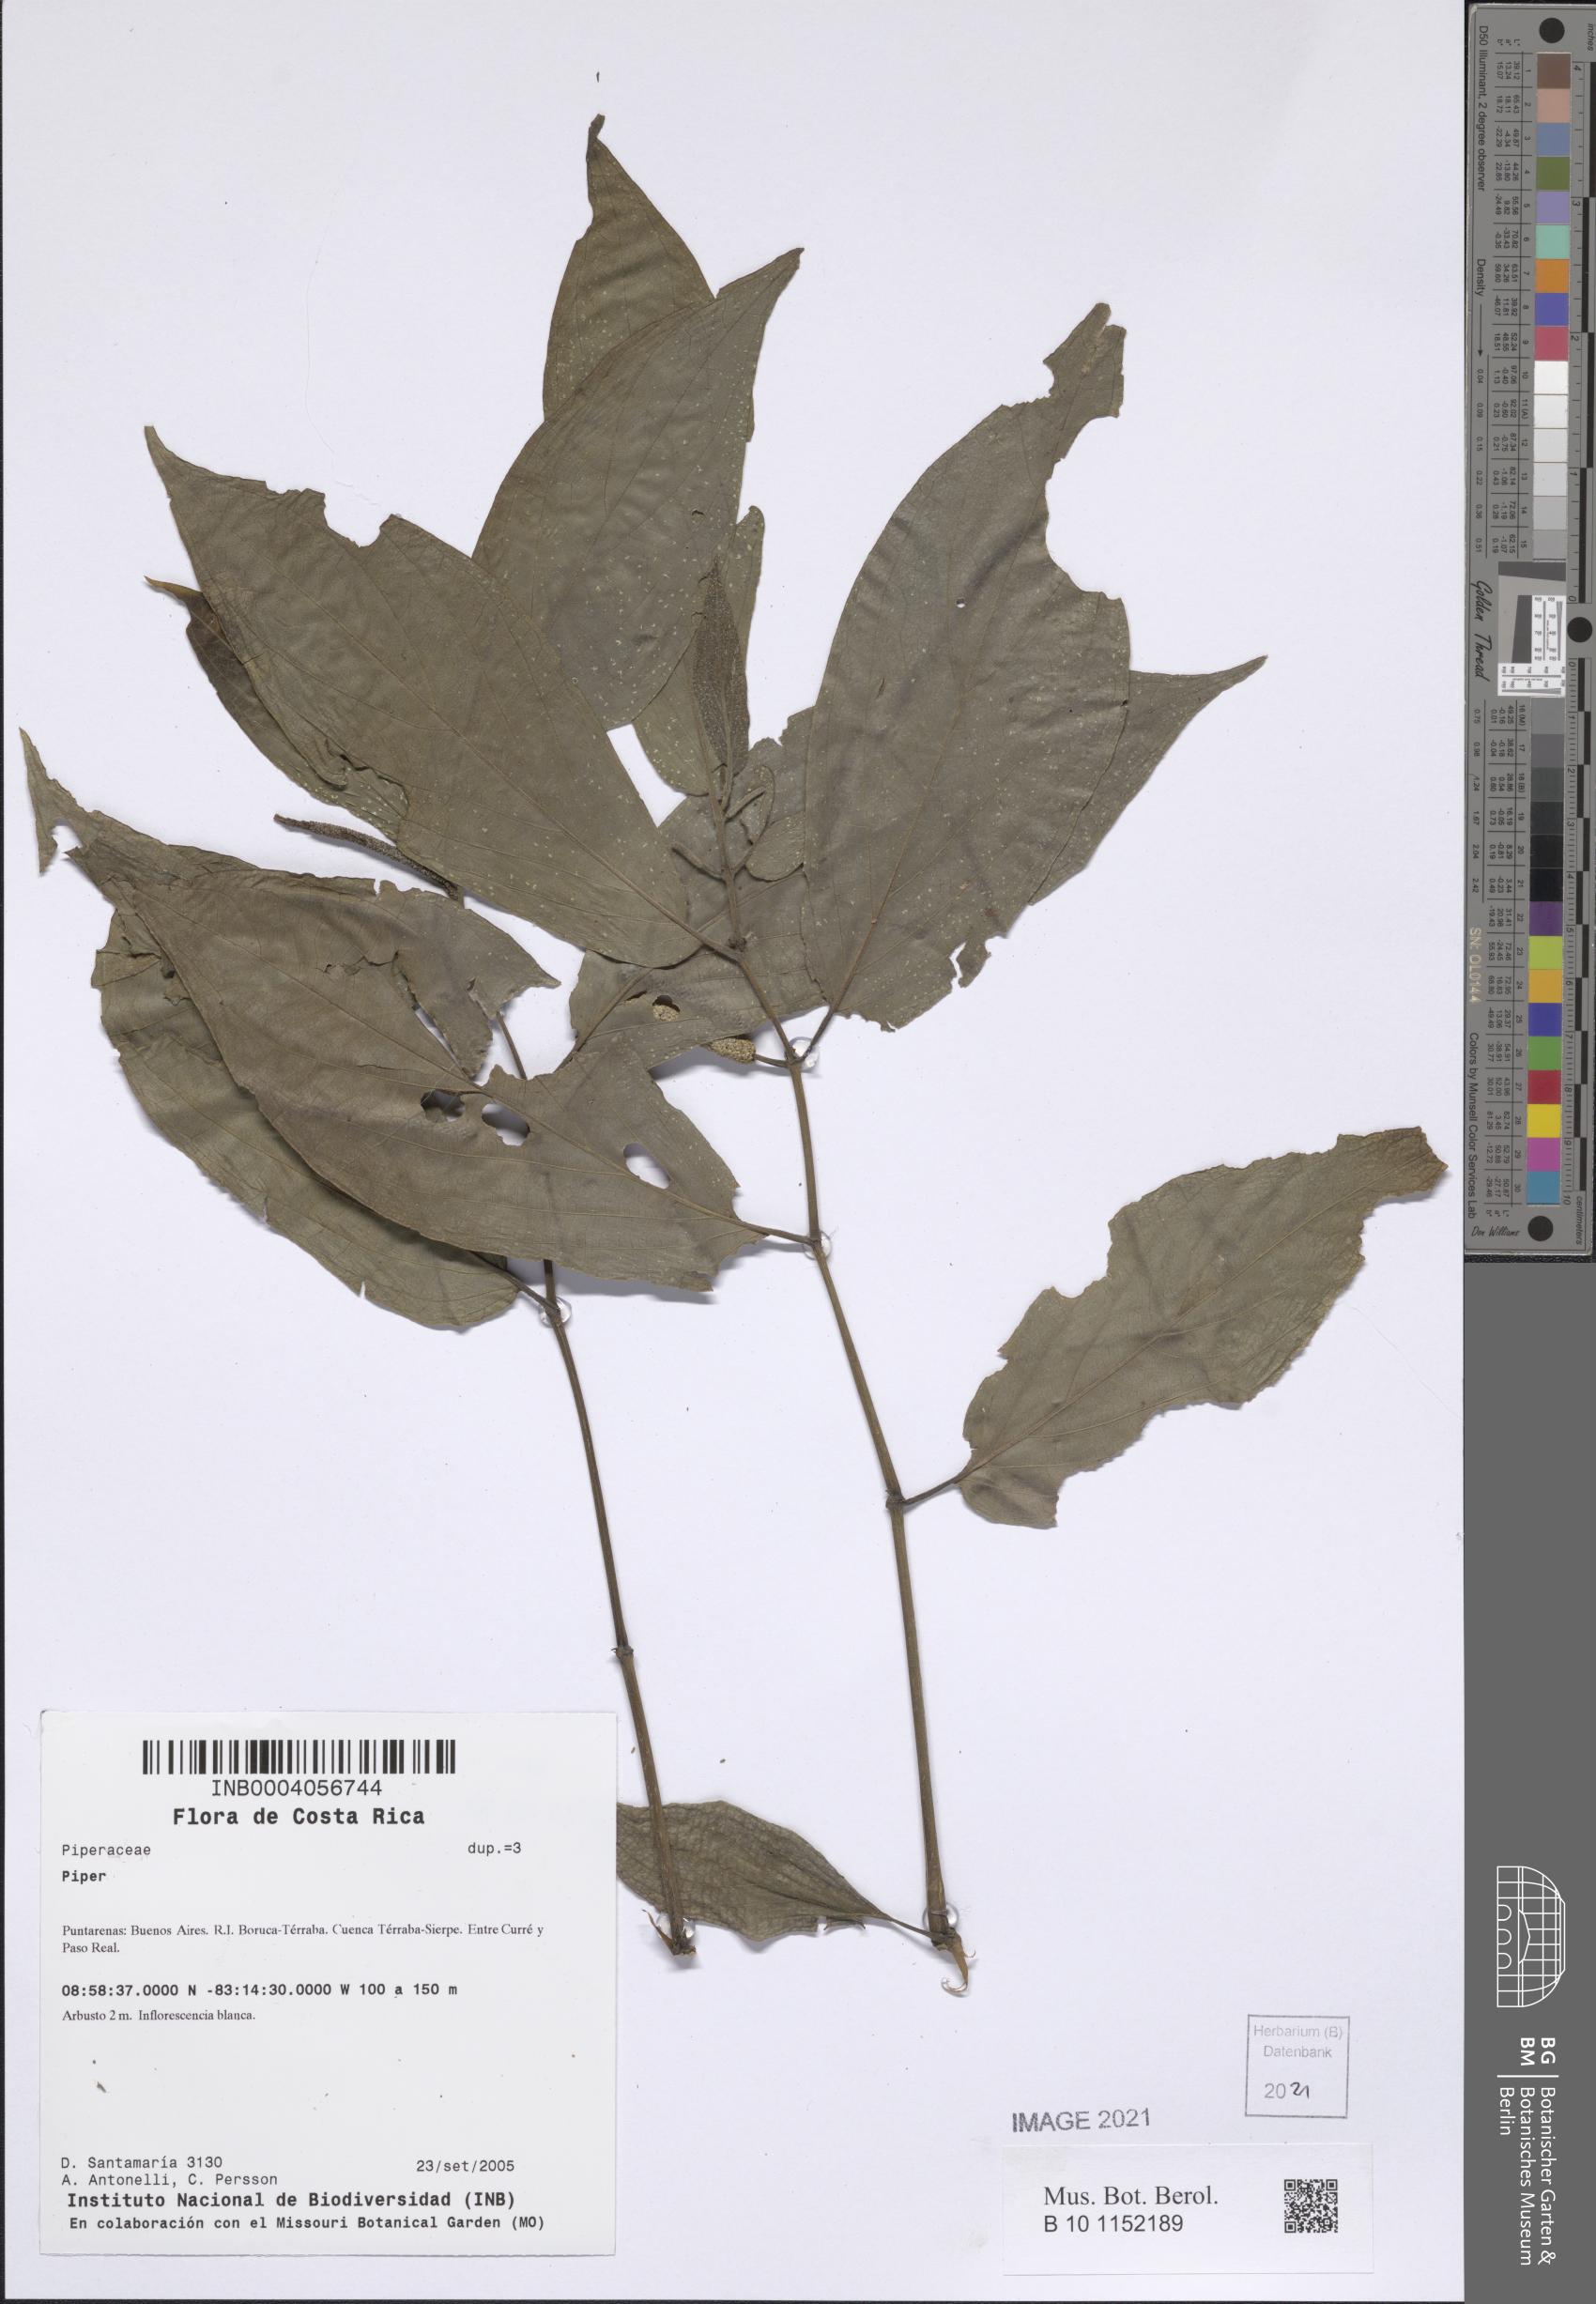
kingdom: Plantae
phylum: Tracheophyta
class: Magnoliopsida
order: Piperales
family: Piperaceae
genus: Piper
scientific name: Piper
